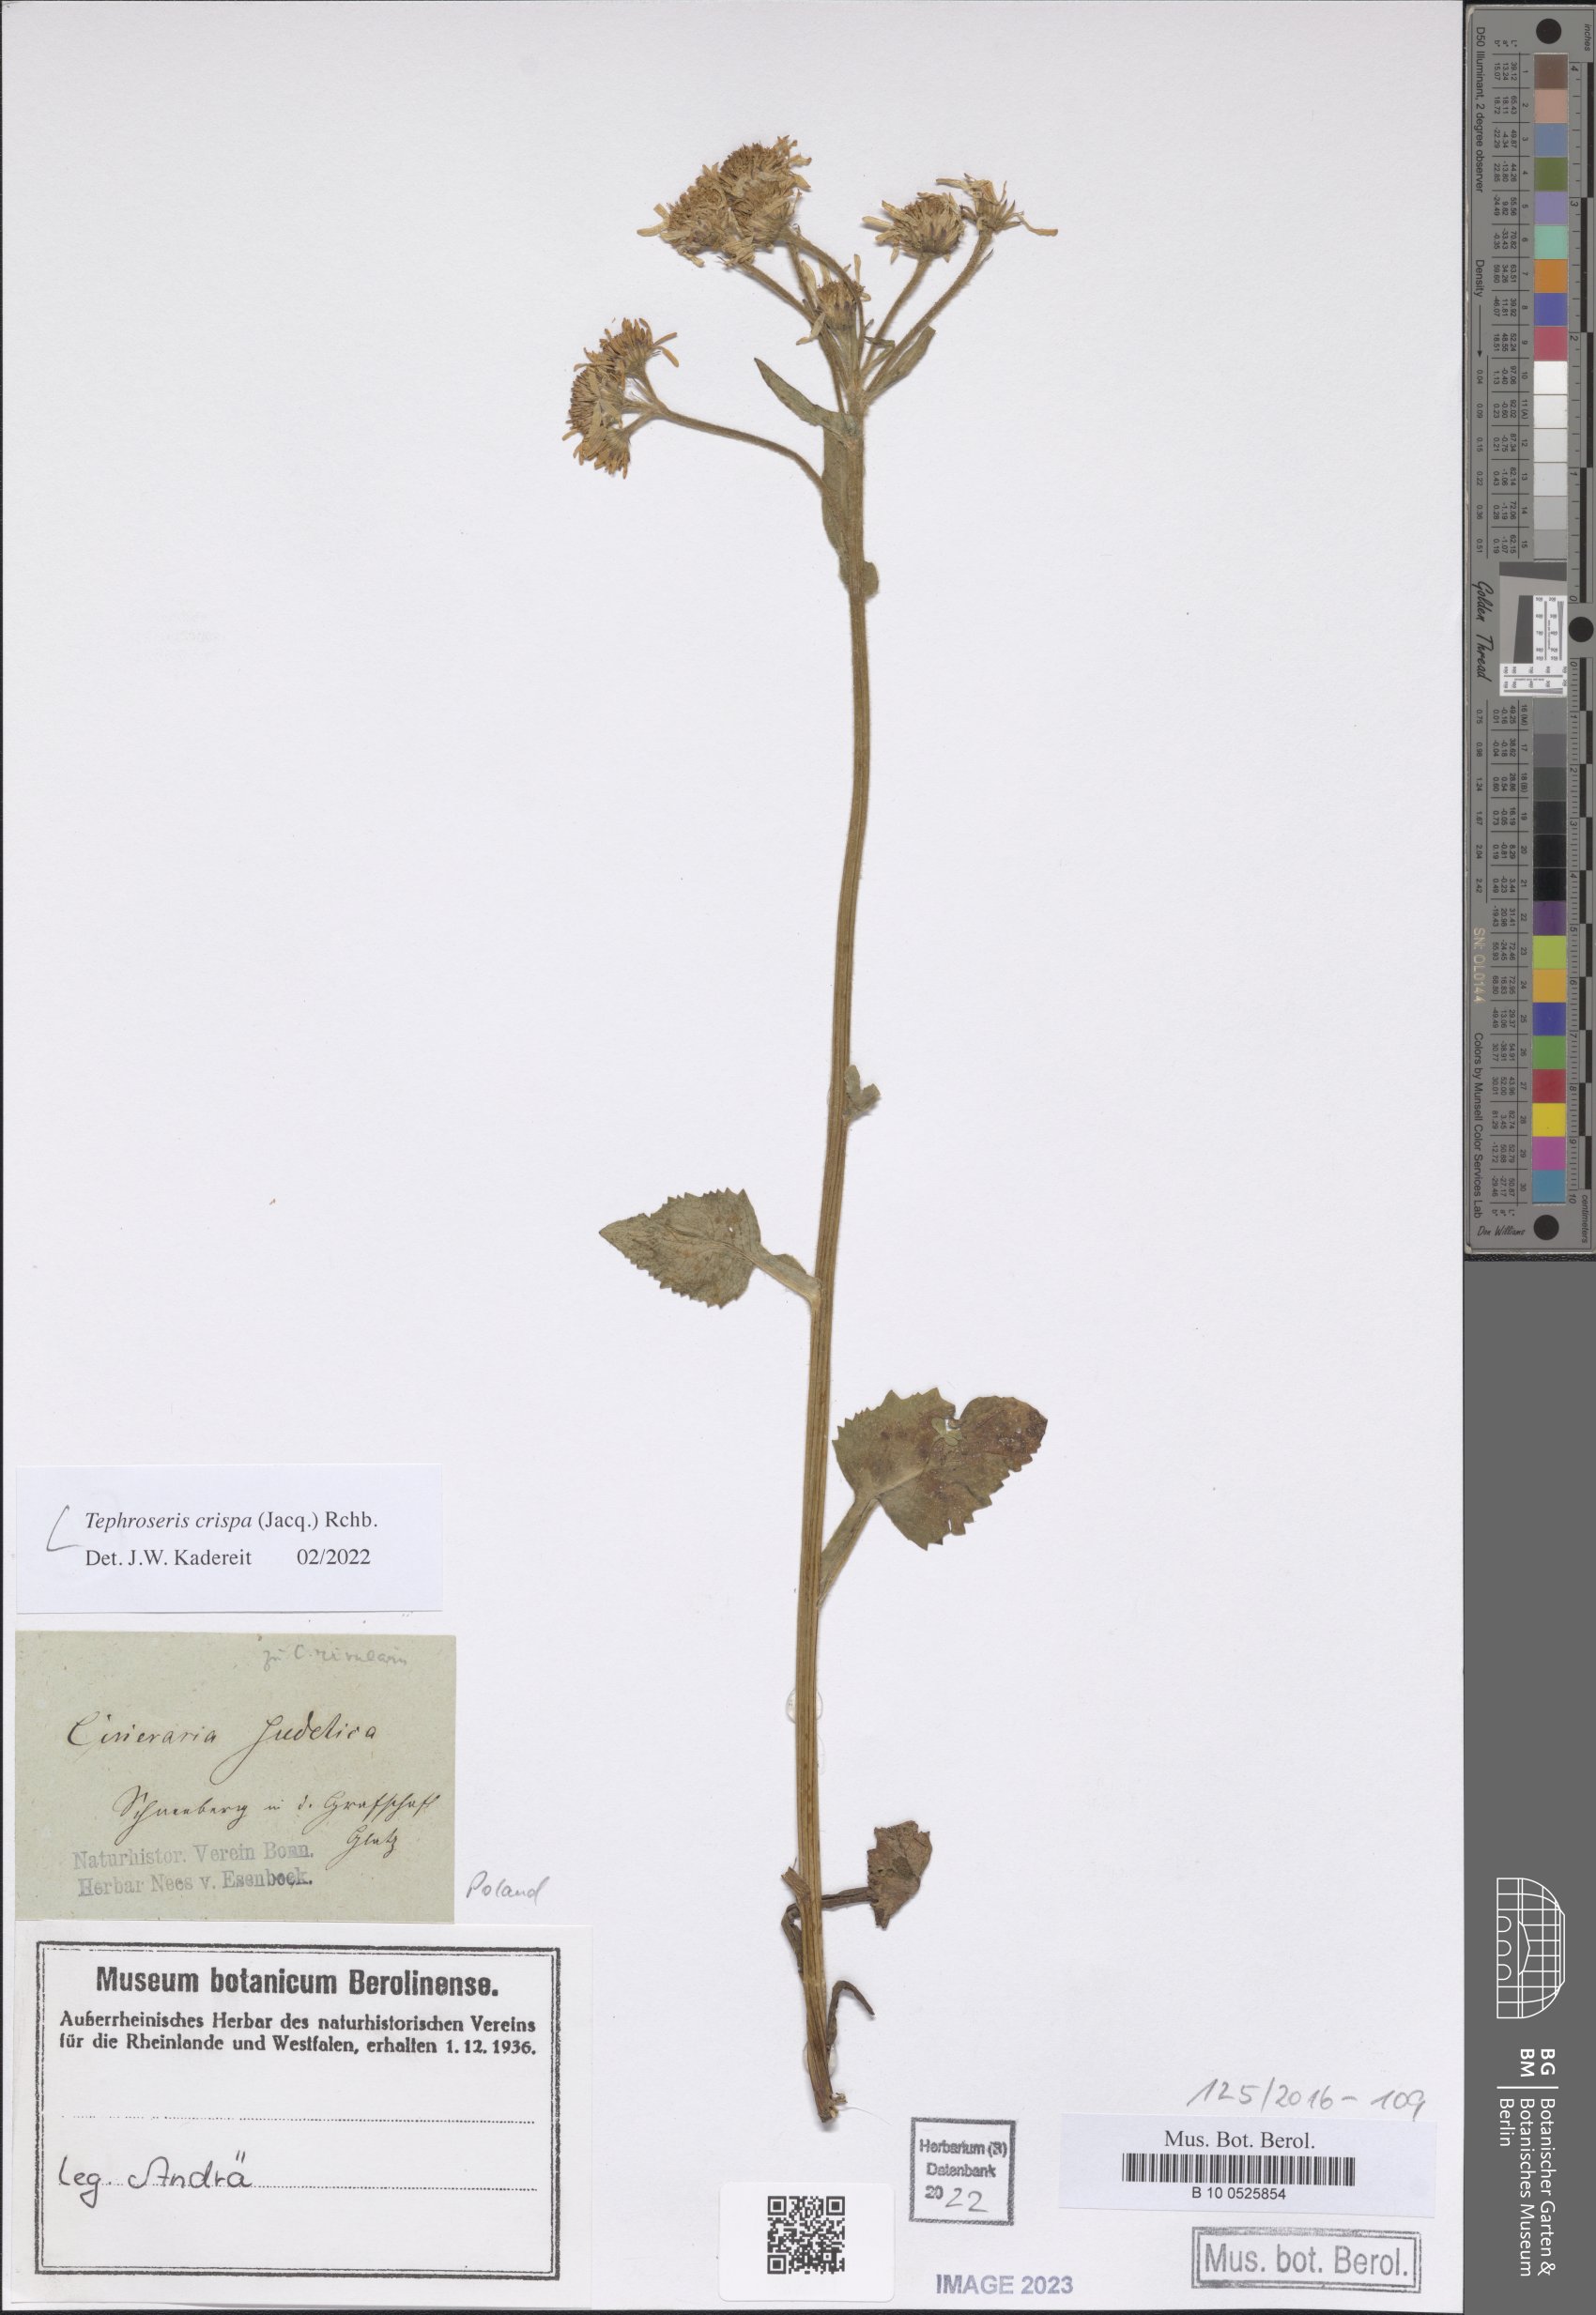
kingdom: Plantae
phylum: Tracheophyta
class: Magnoliopsida
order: Asterales
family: Asteraceae
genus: Tephroseris
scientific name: Tephroseris crispa
